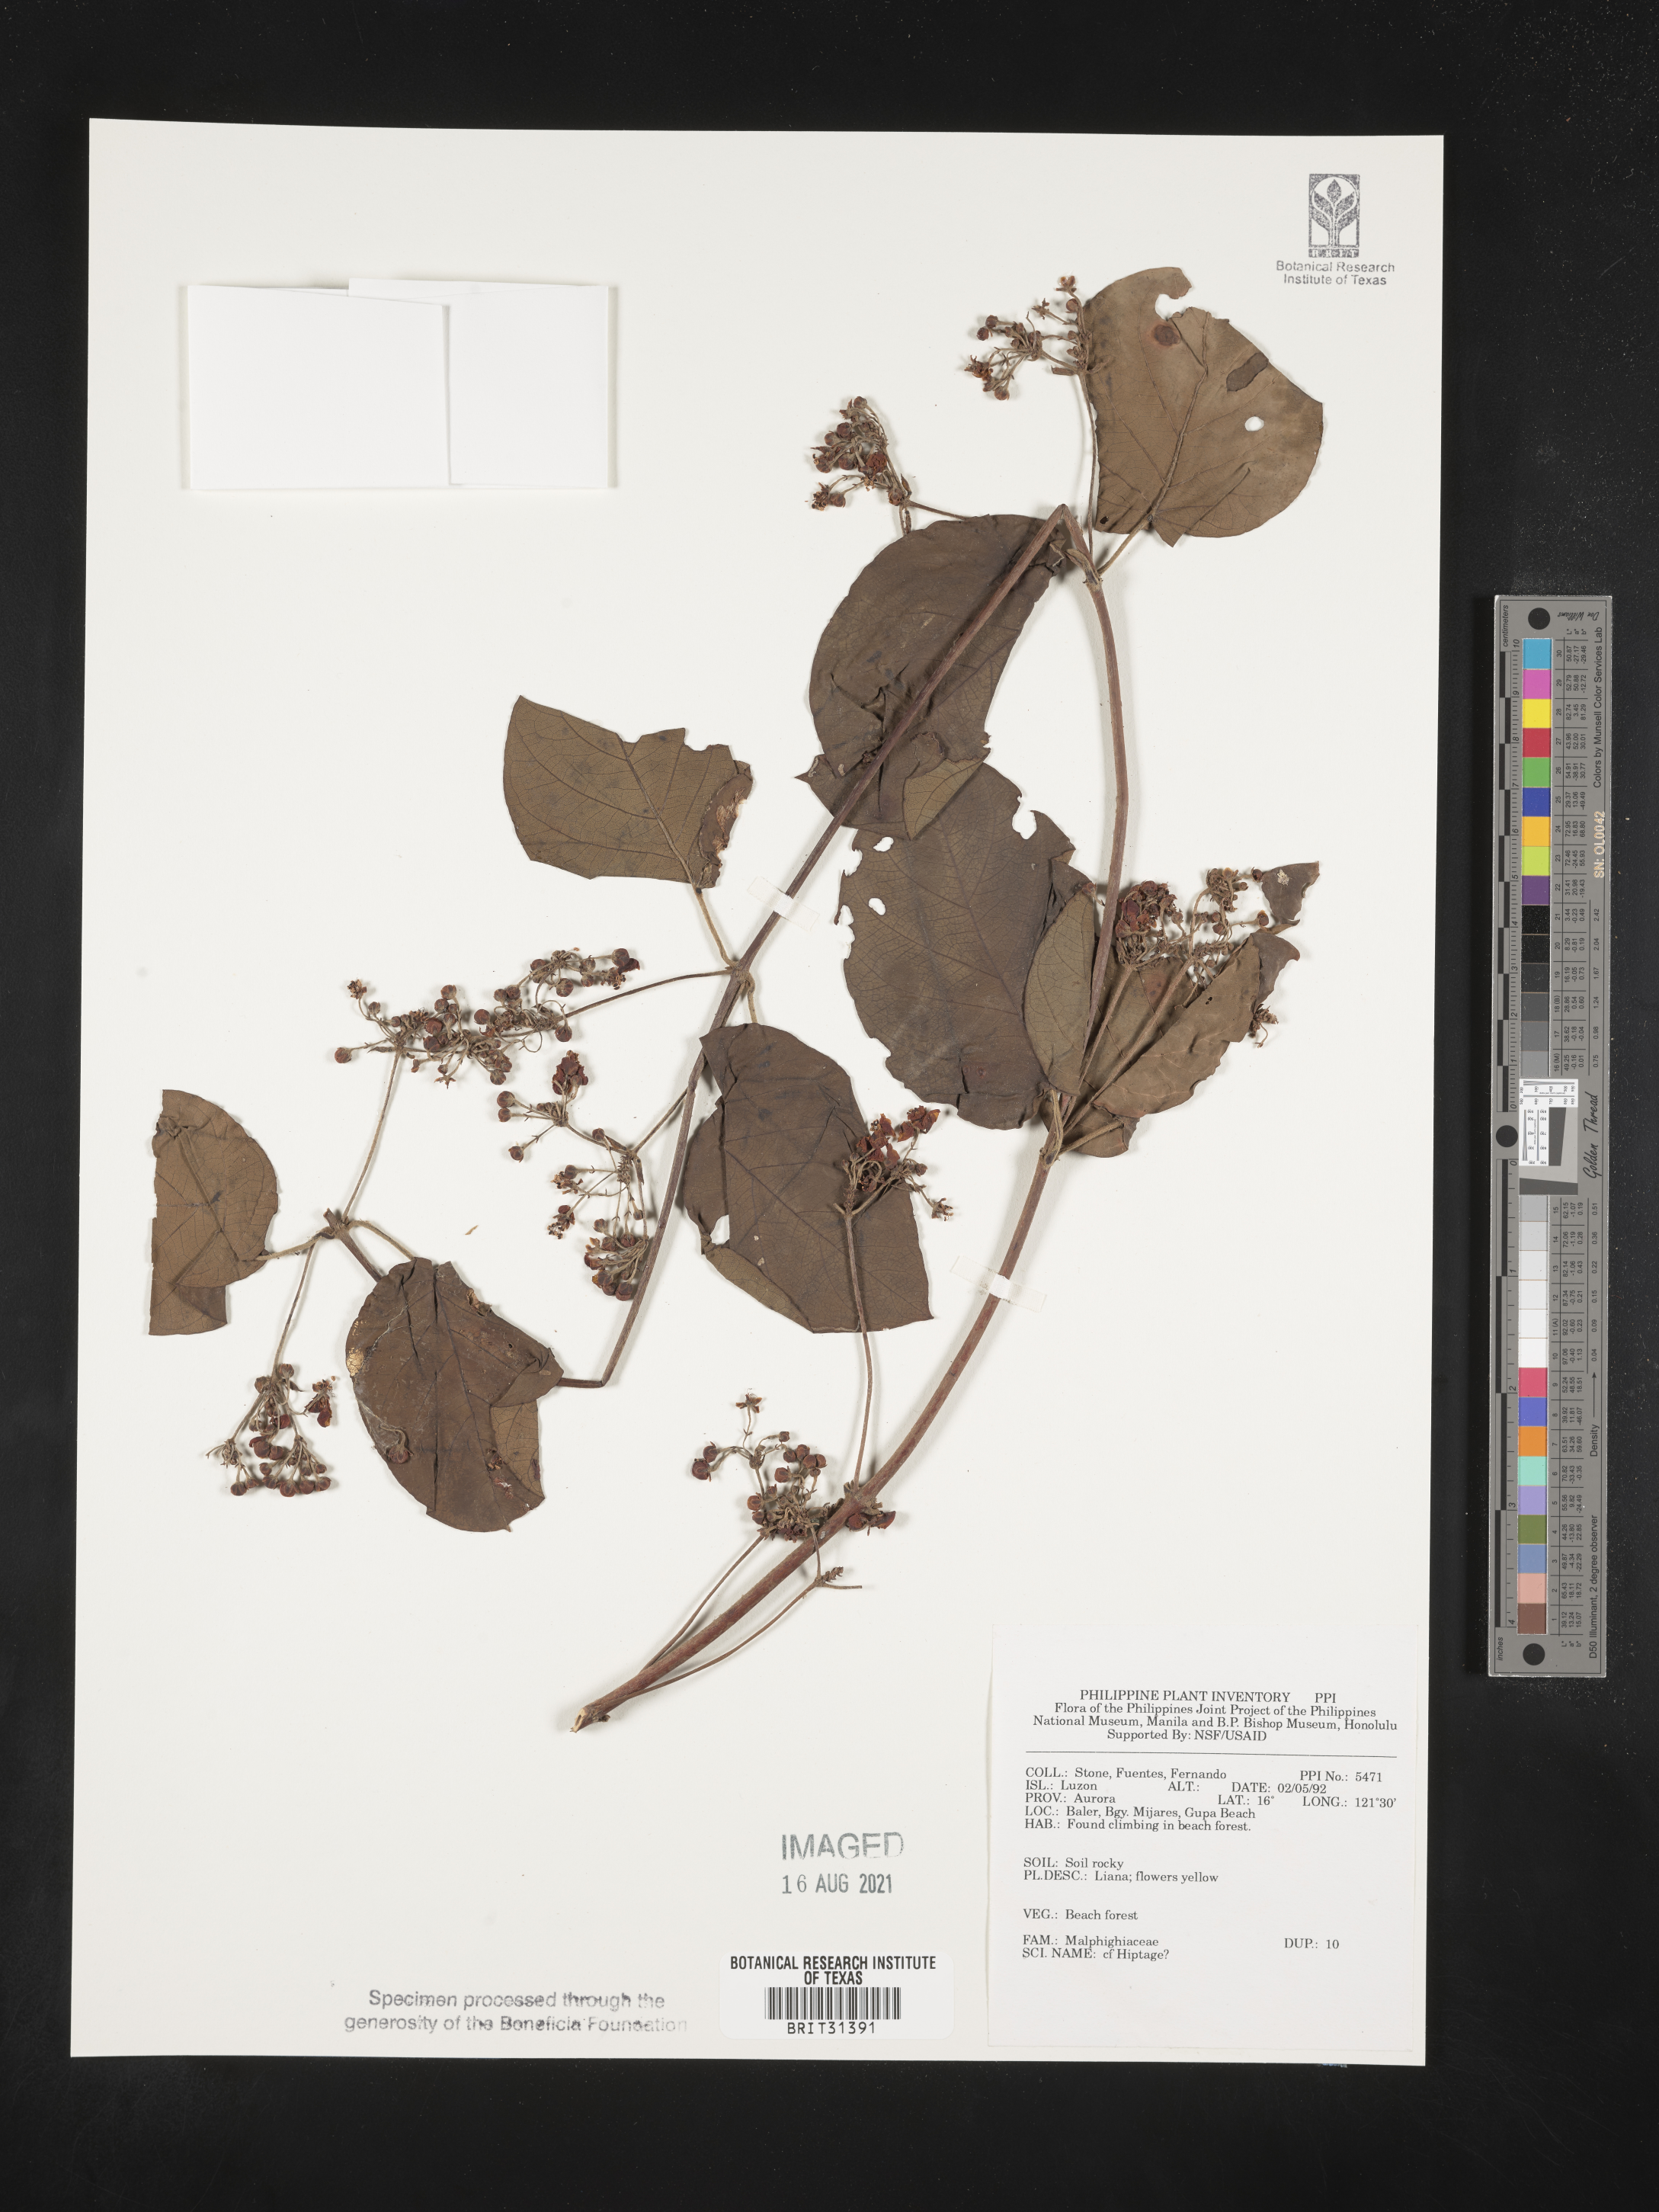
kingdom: Plantae
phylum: Tracheophyta
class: Magnoliopsida
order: Malpighiales
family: Malpighiaceae
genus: Hiptage
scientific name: Hiptage
